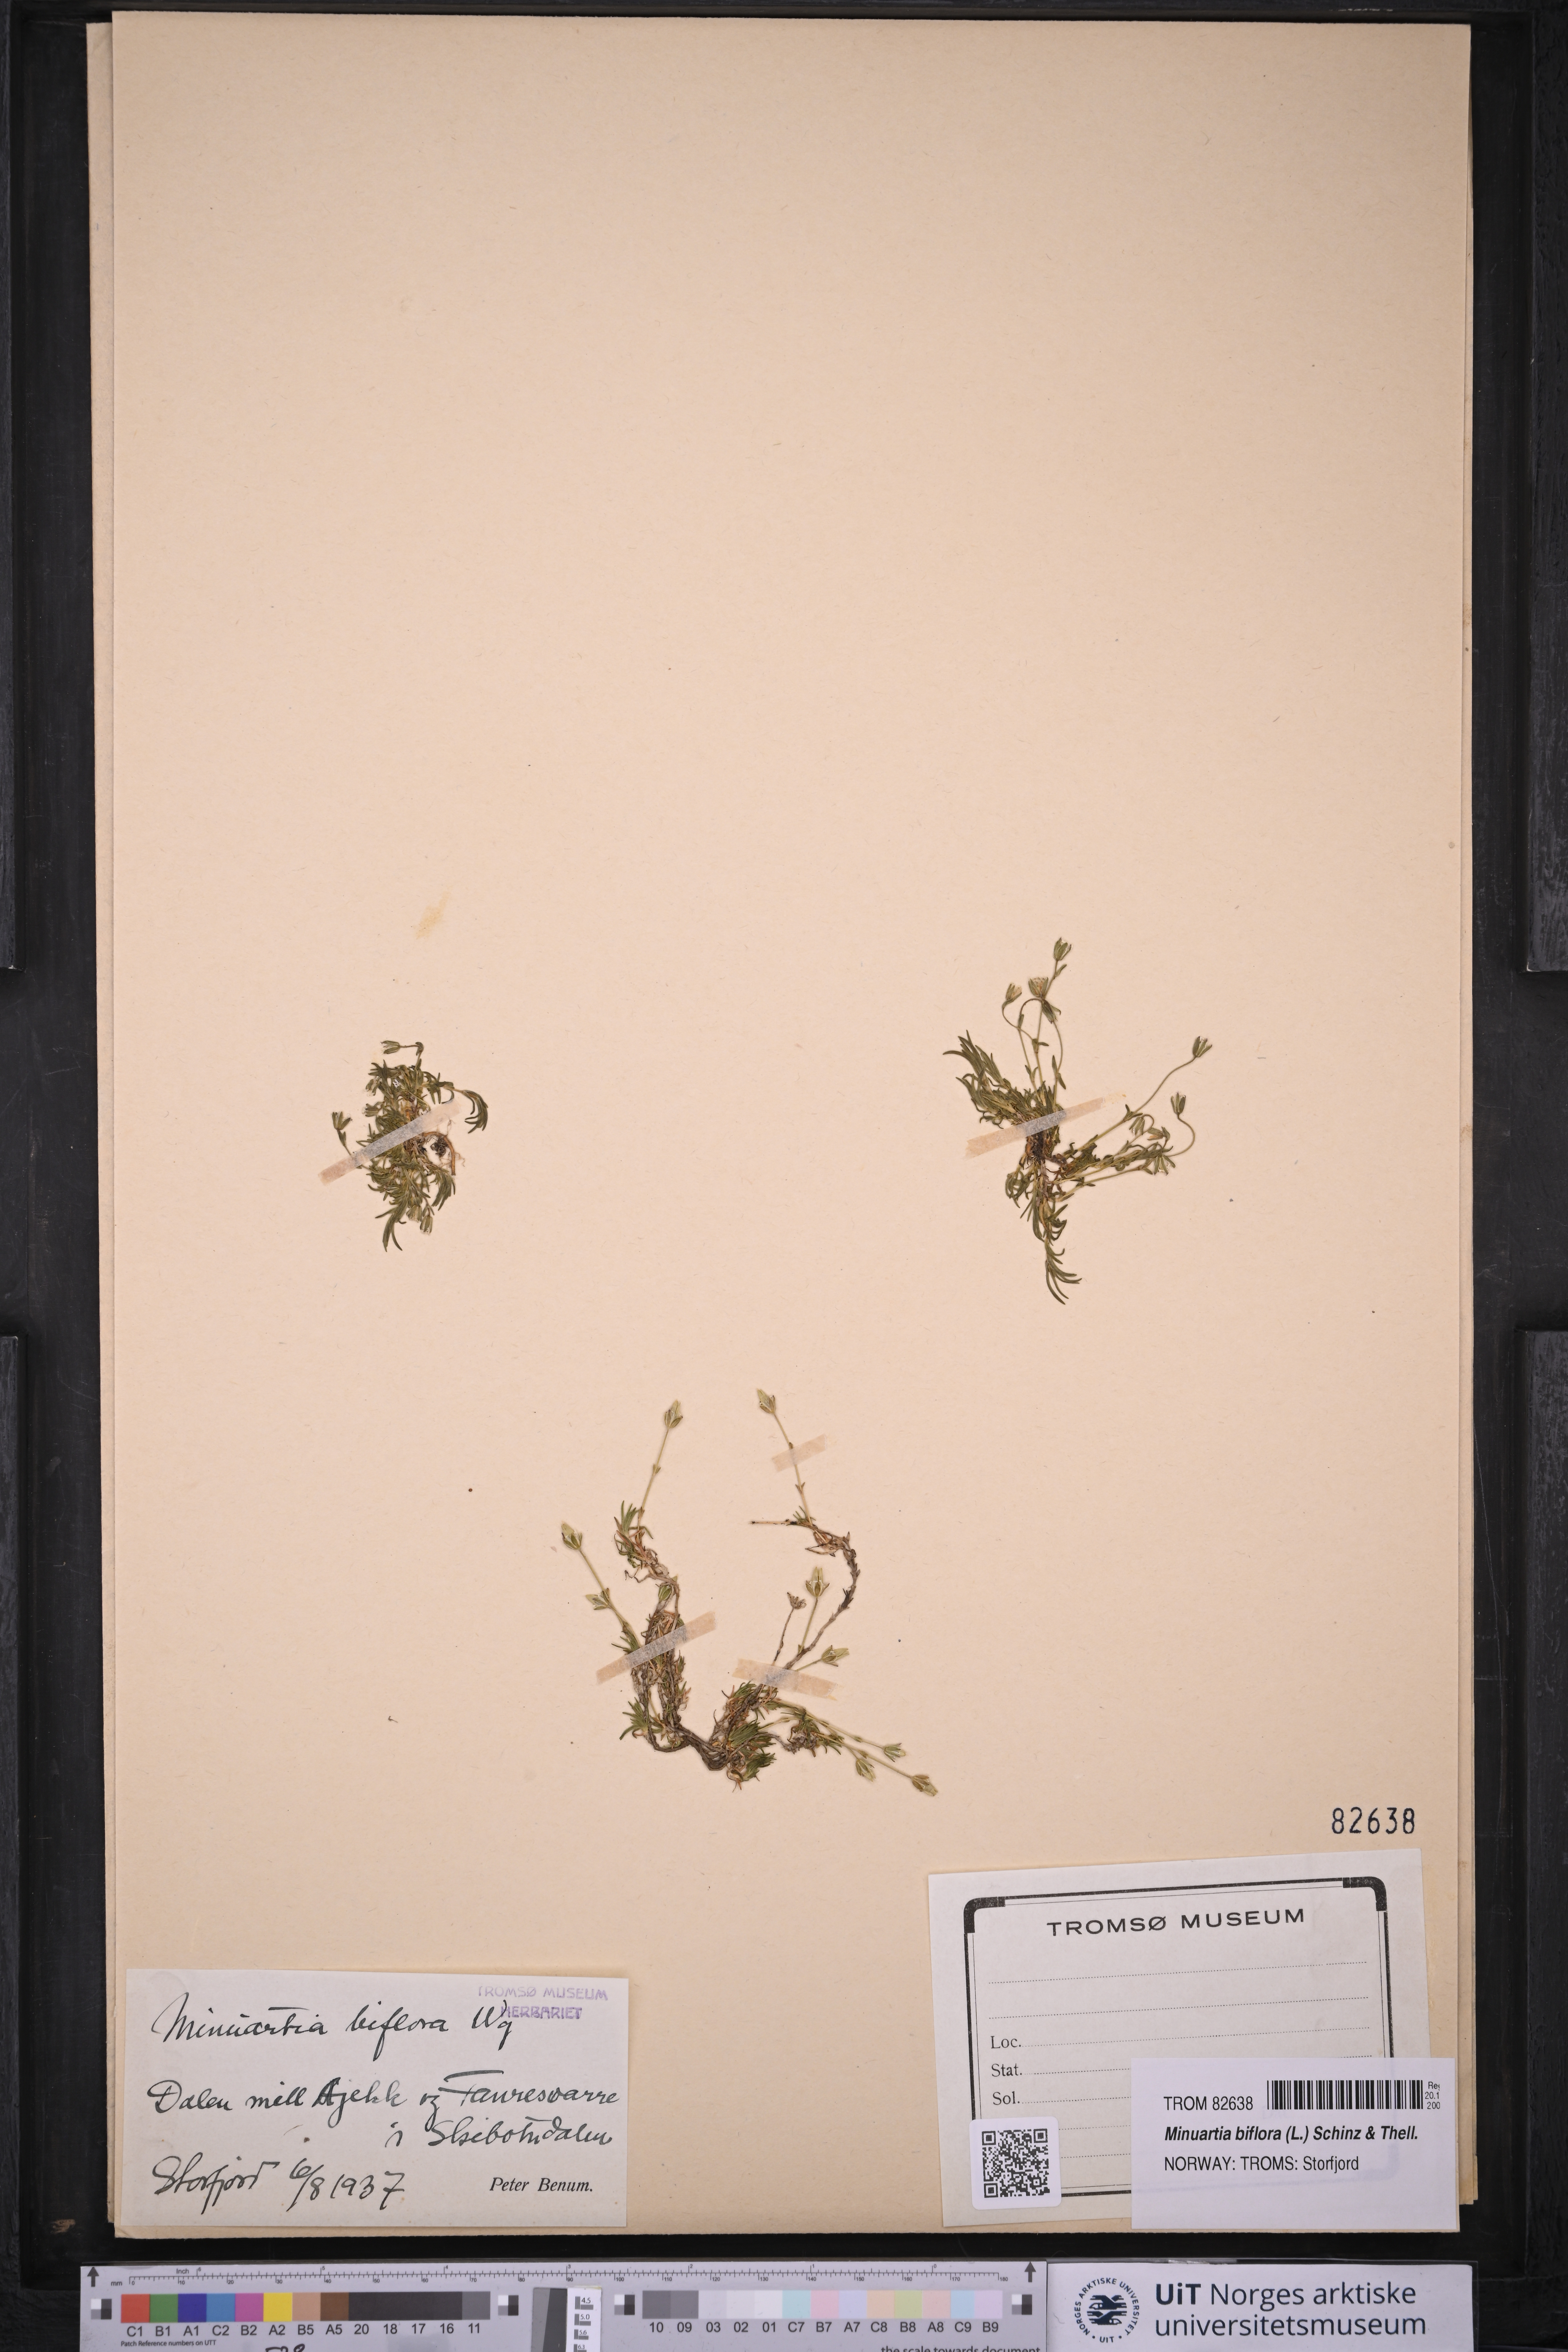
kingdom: Plantae
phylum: Tracheophyta
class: Magnoliopsida
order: Caryophyllales
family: Caryophyllaceae
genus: Cherleria
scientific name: Cherleria biflora
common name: Mountain sandwort
